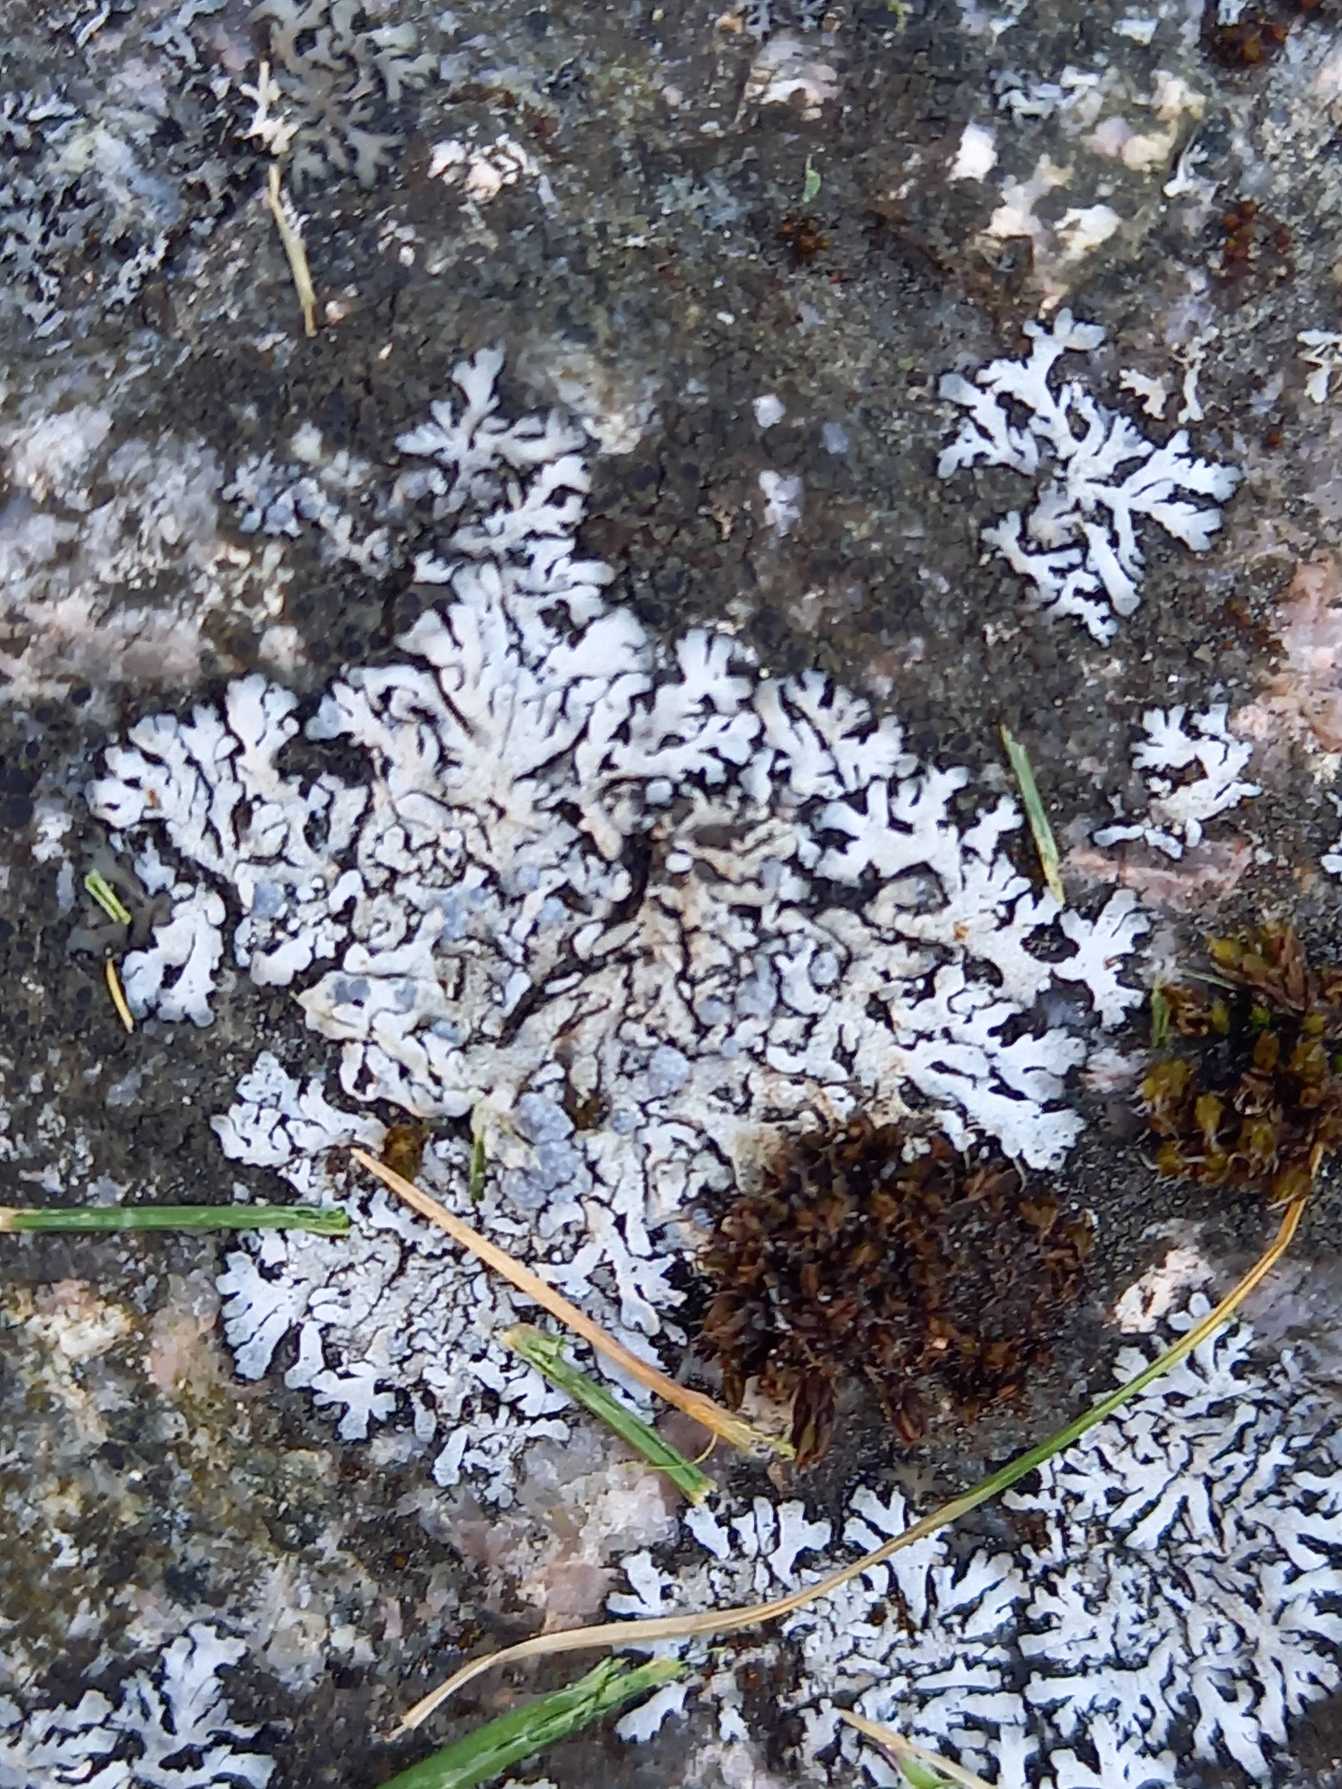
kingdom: Fungi
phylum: Ascomycota
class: Lecanoromycetes
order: Caliciales
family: Physciaceae
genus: Physcia
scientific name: Physcia caesia
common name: Blågrå rosetlav
